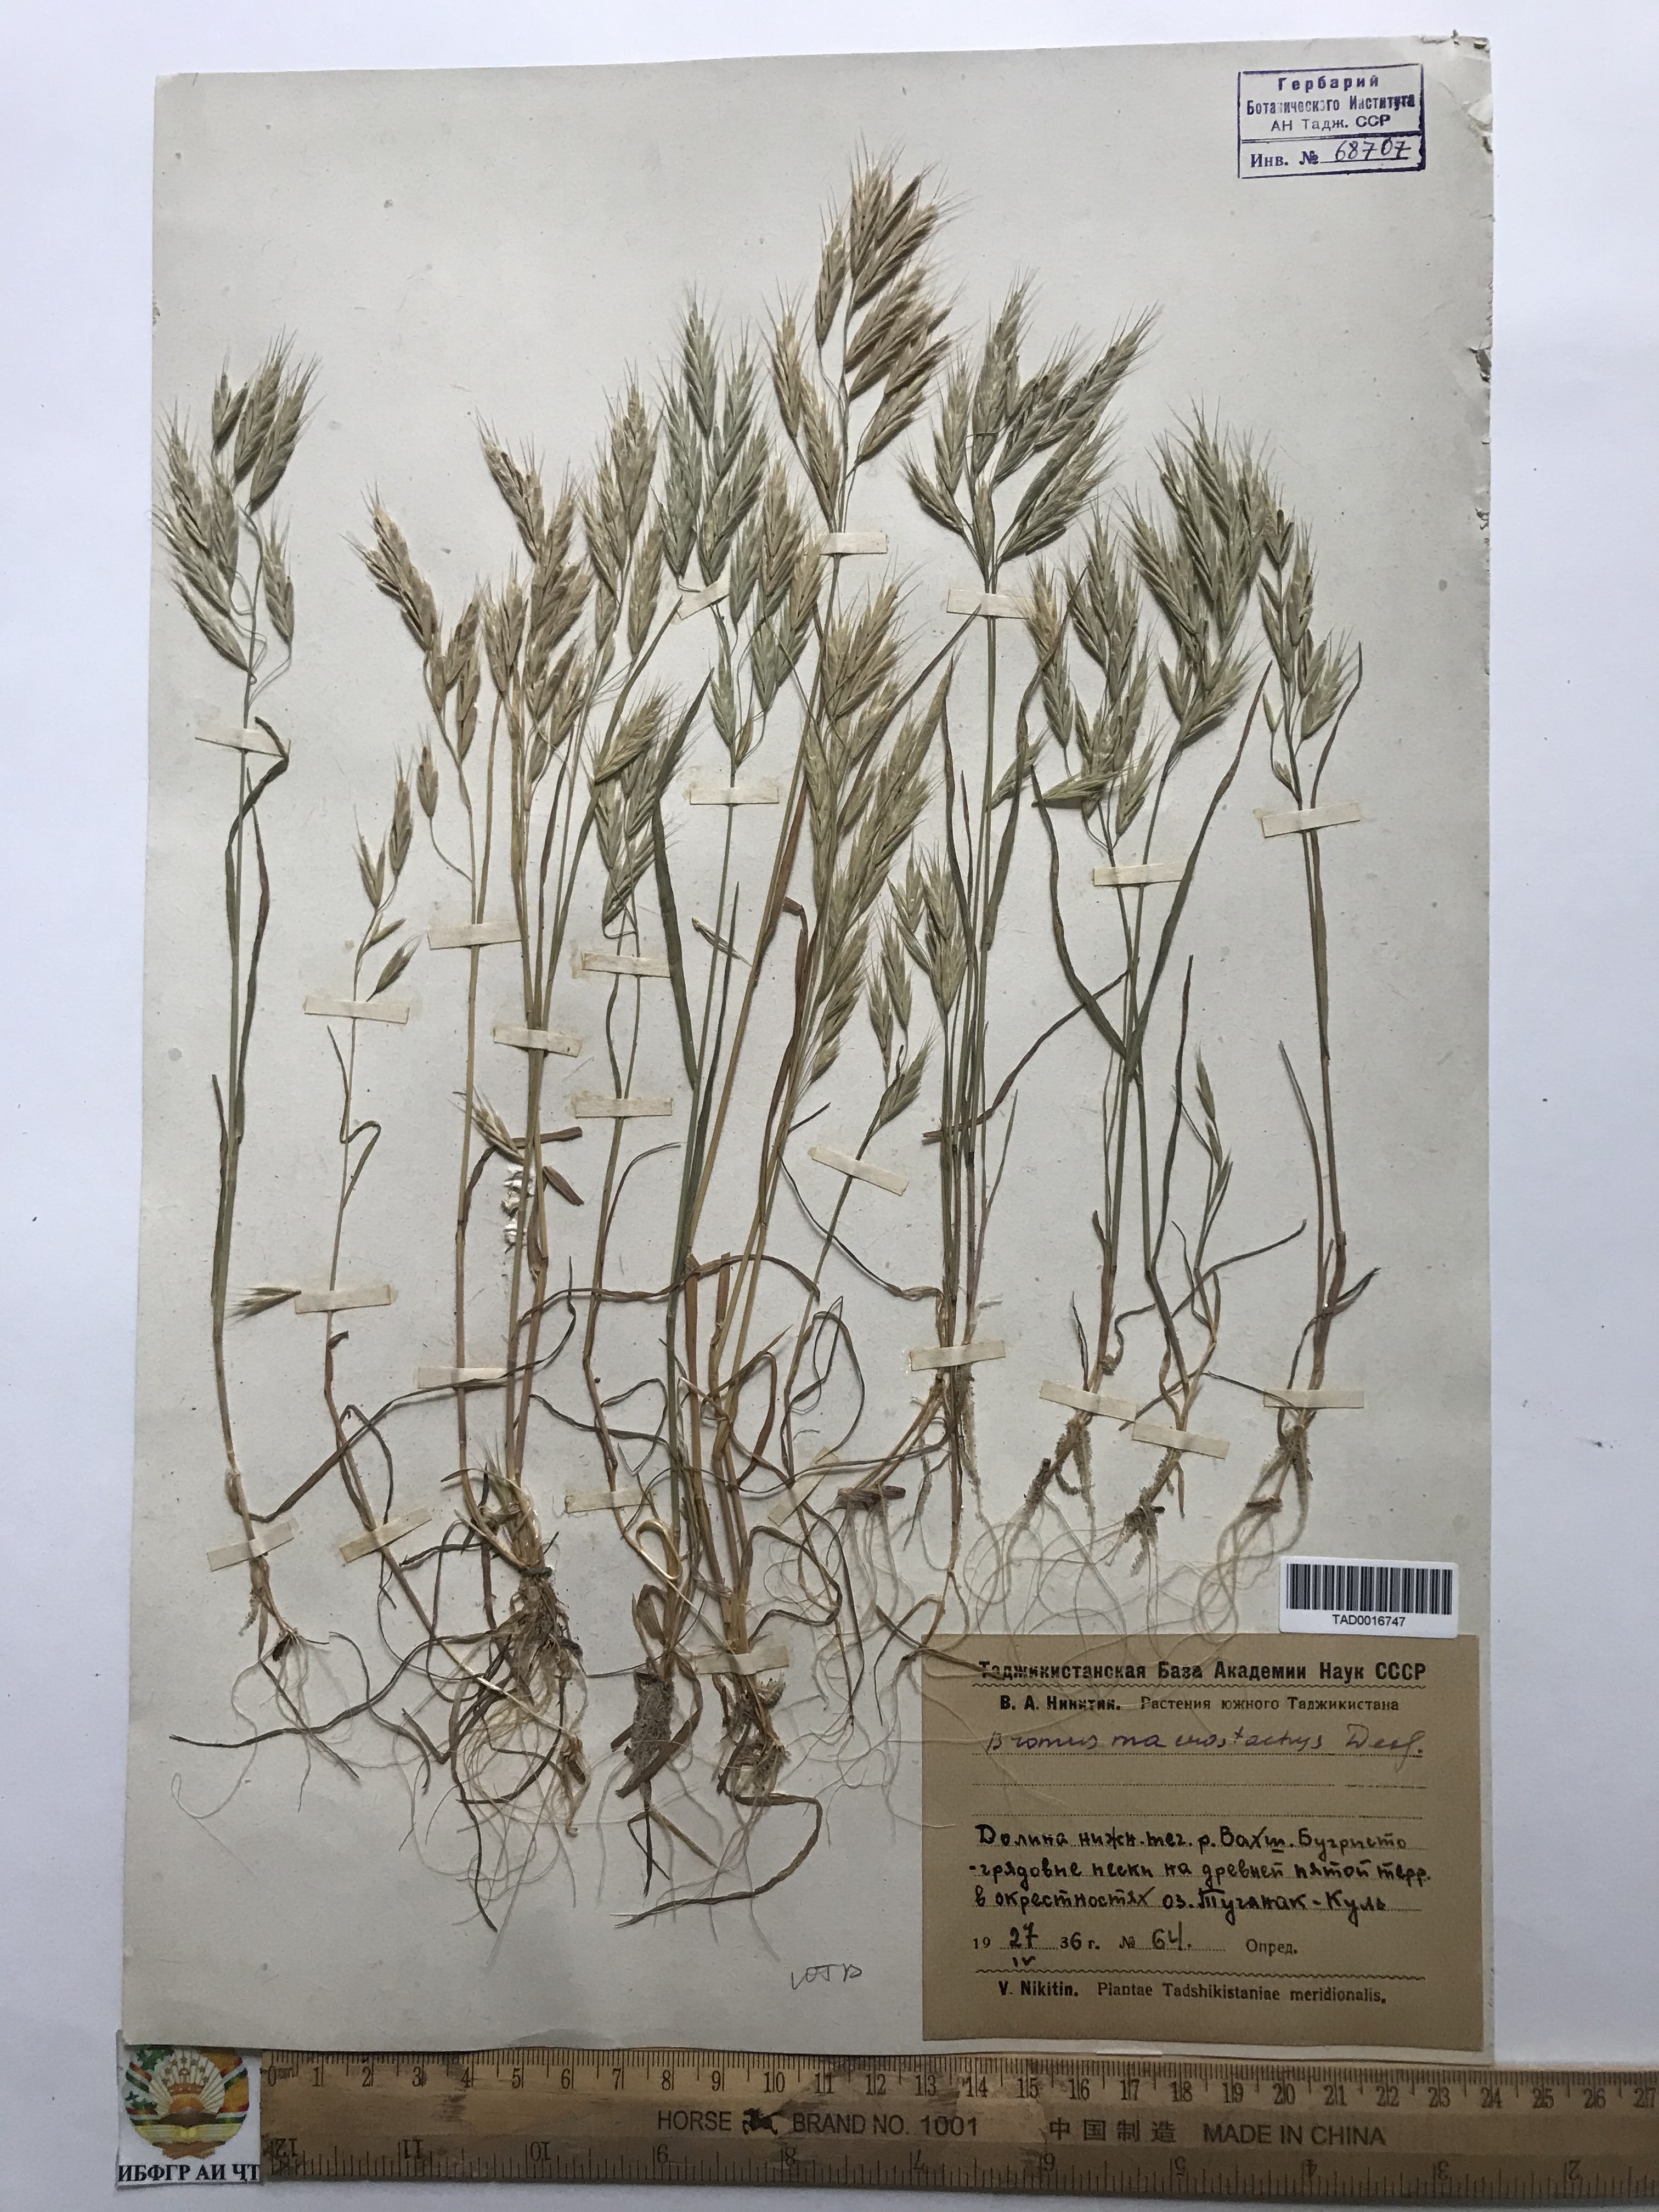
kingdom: Plantae
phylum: Tracheophyta
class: Liliopsida
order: Poales
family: Poaceae
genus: Bromus
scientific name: Bromus lanceolatus
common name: Mediterranean brome
